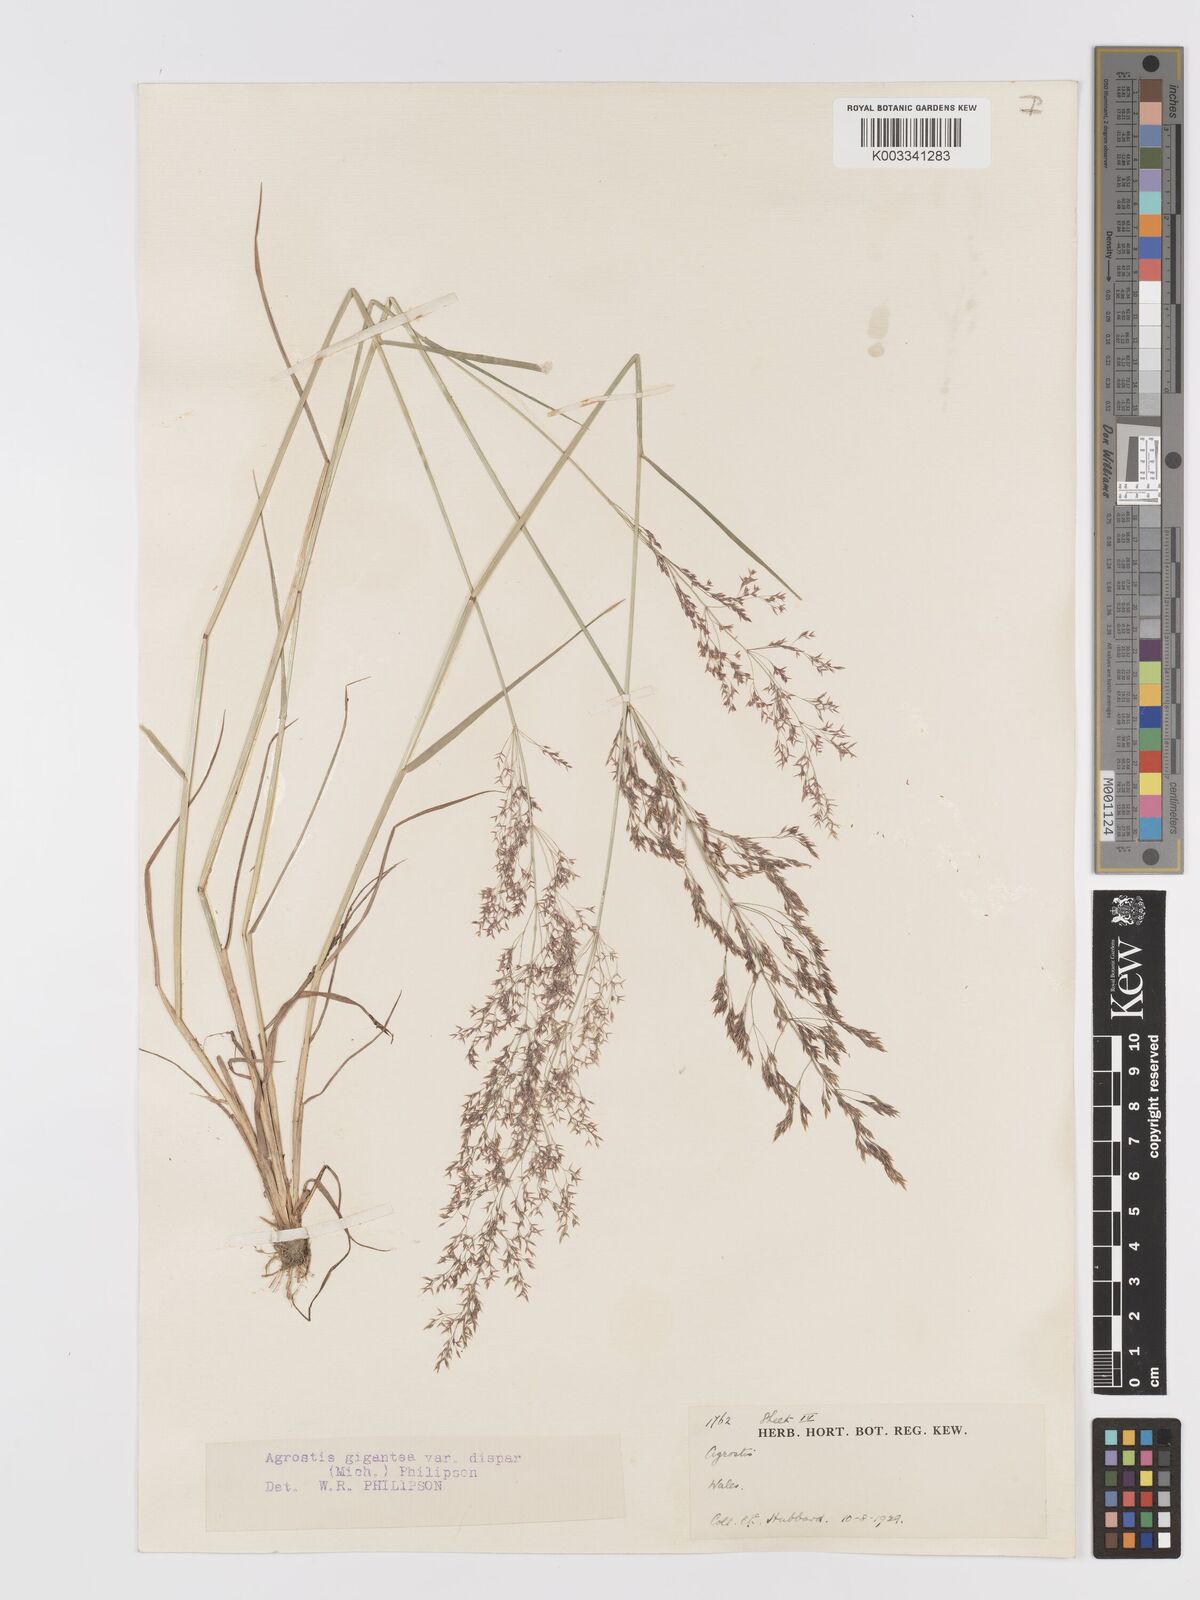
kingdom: Plantae
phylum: Tracheophyta
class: Liliopsida
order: Poales
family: Poaceae
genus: Agrostis
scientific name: Agrostis gigantea
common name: Black bent
